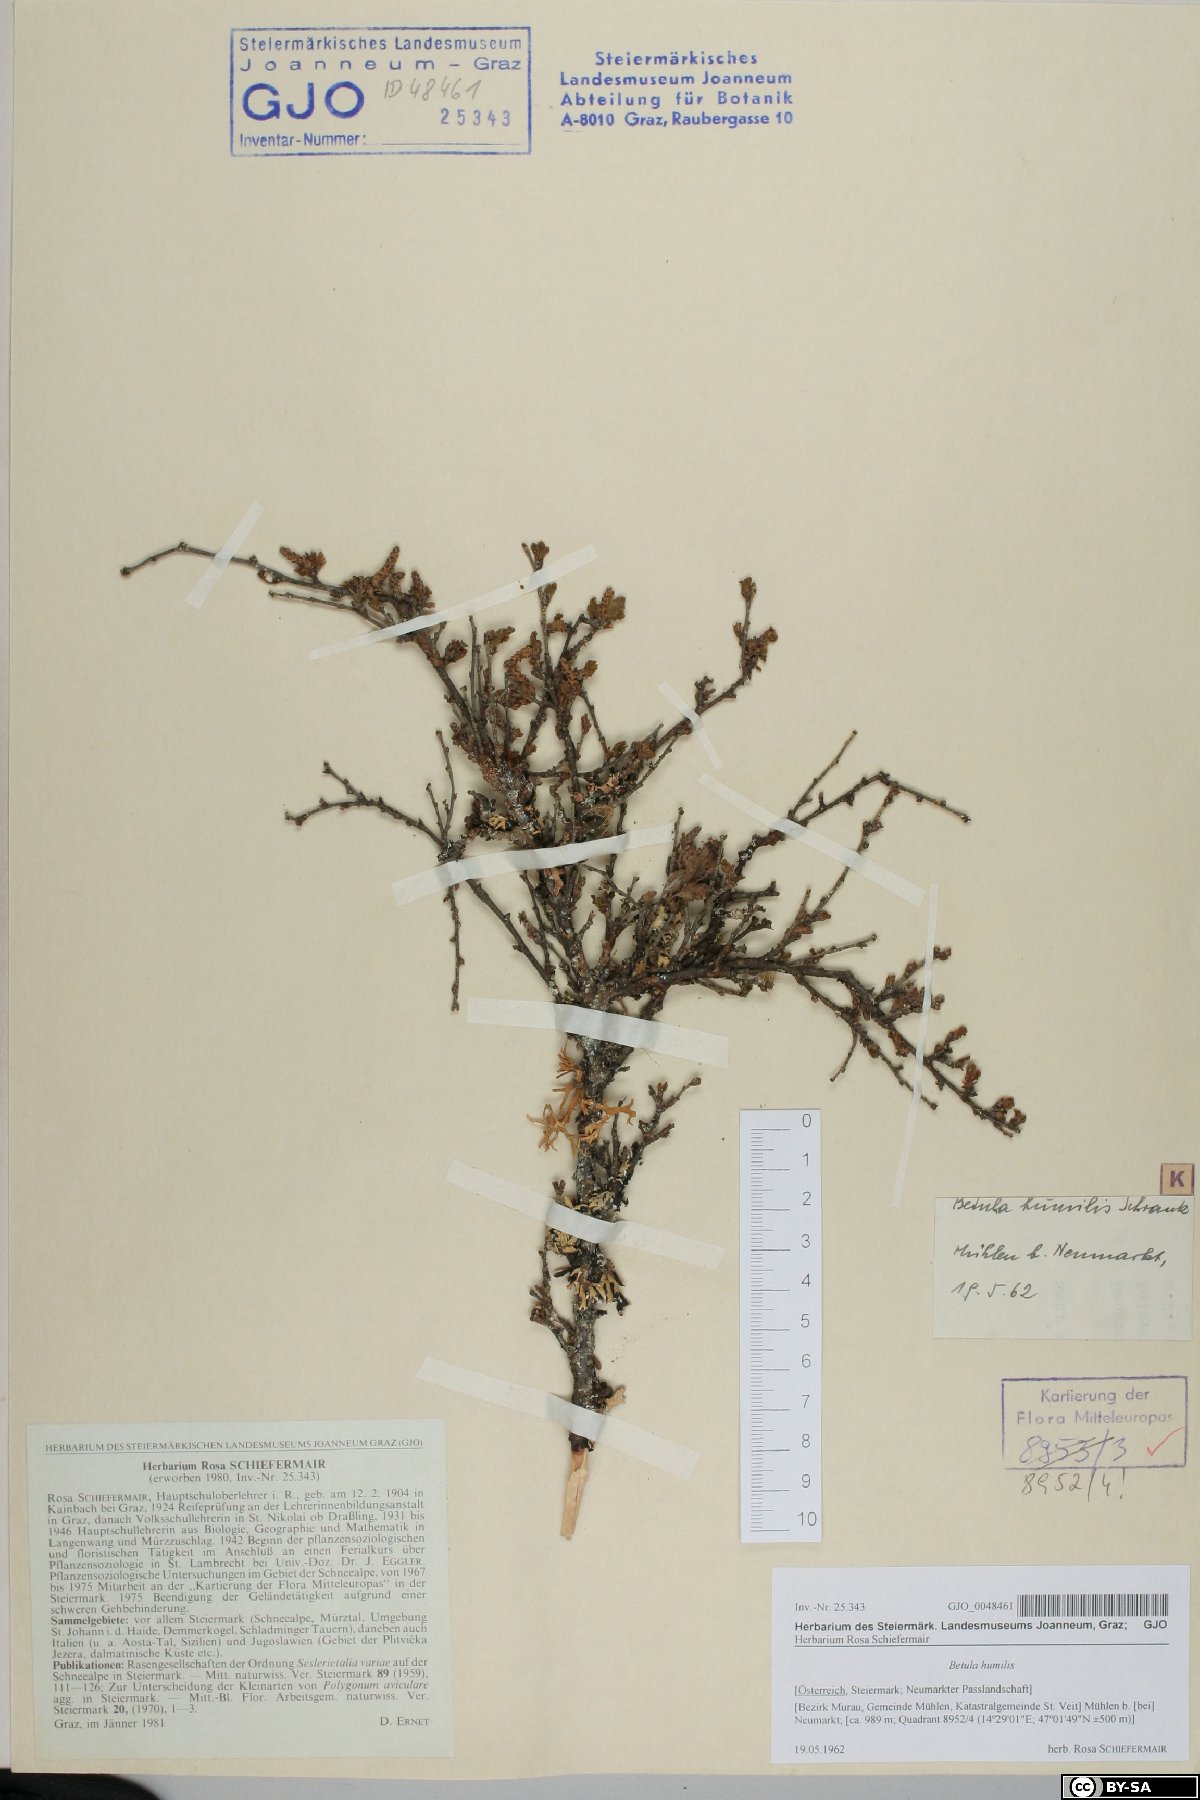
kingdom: Plantae
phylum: Tracheophyta
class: Magnoliopsida
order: Fagales
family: Betulaceae
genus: Betula
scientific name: Betula humilis
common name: Shrubby birch
